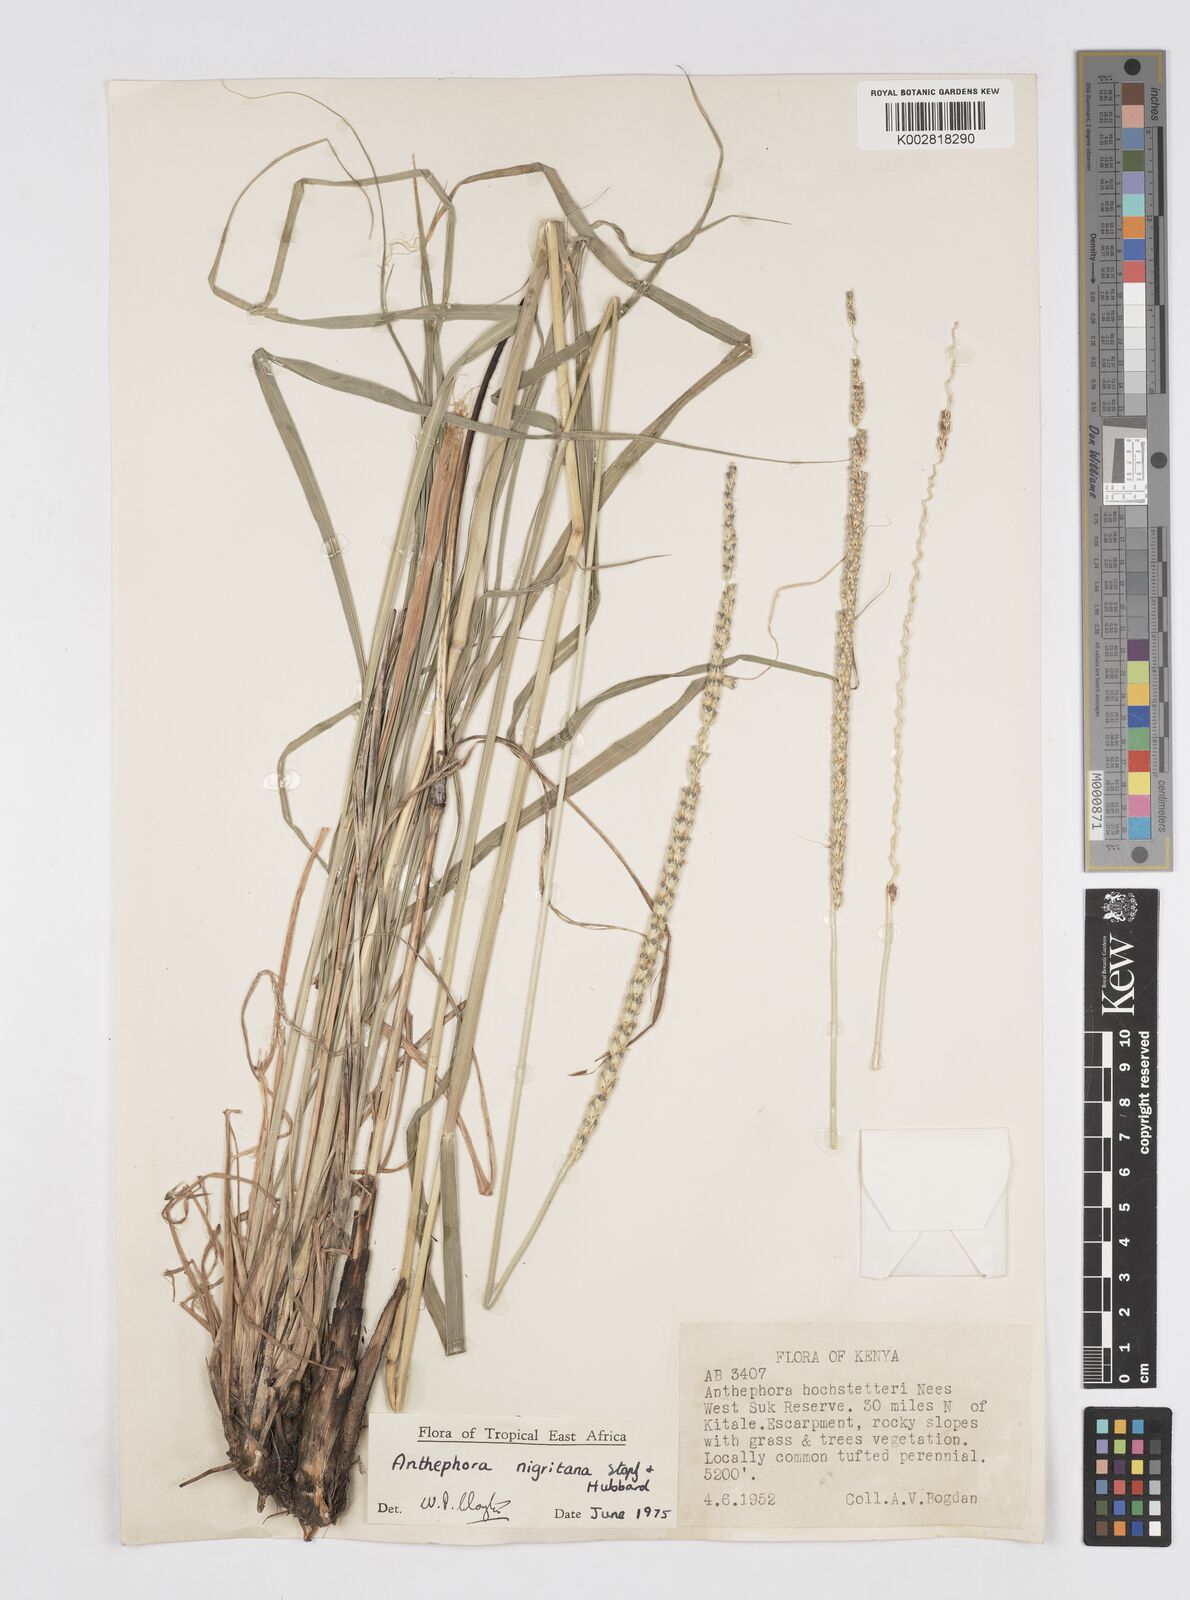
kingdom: Plantae
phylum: Tracheophyta
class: Liliopsida
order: Poales
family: Poaceae
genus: Anthephora
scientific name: Anthephora nigritana
